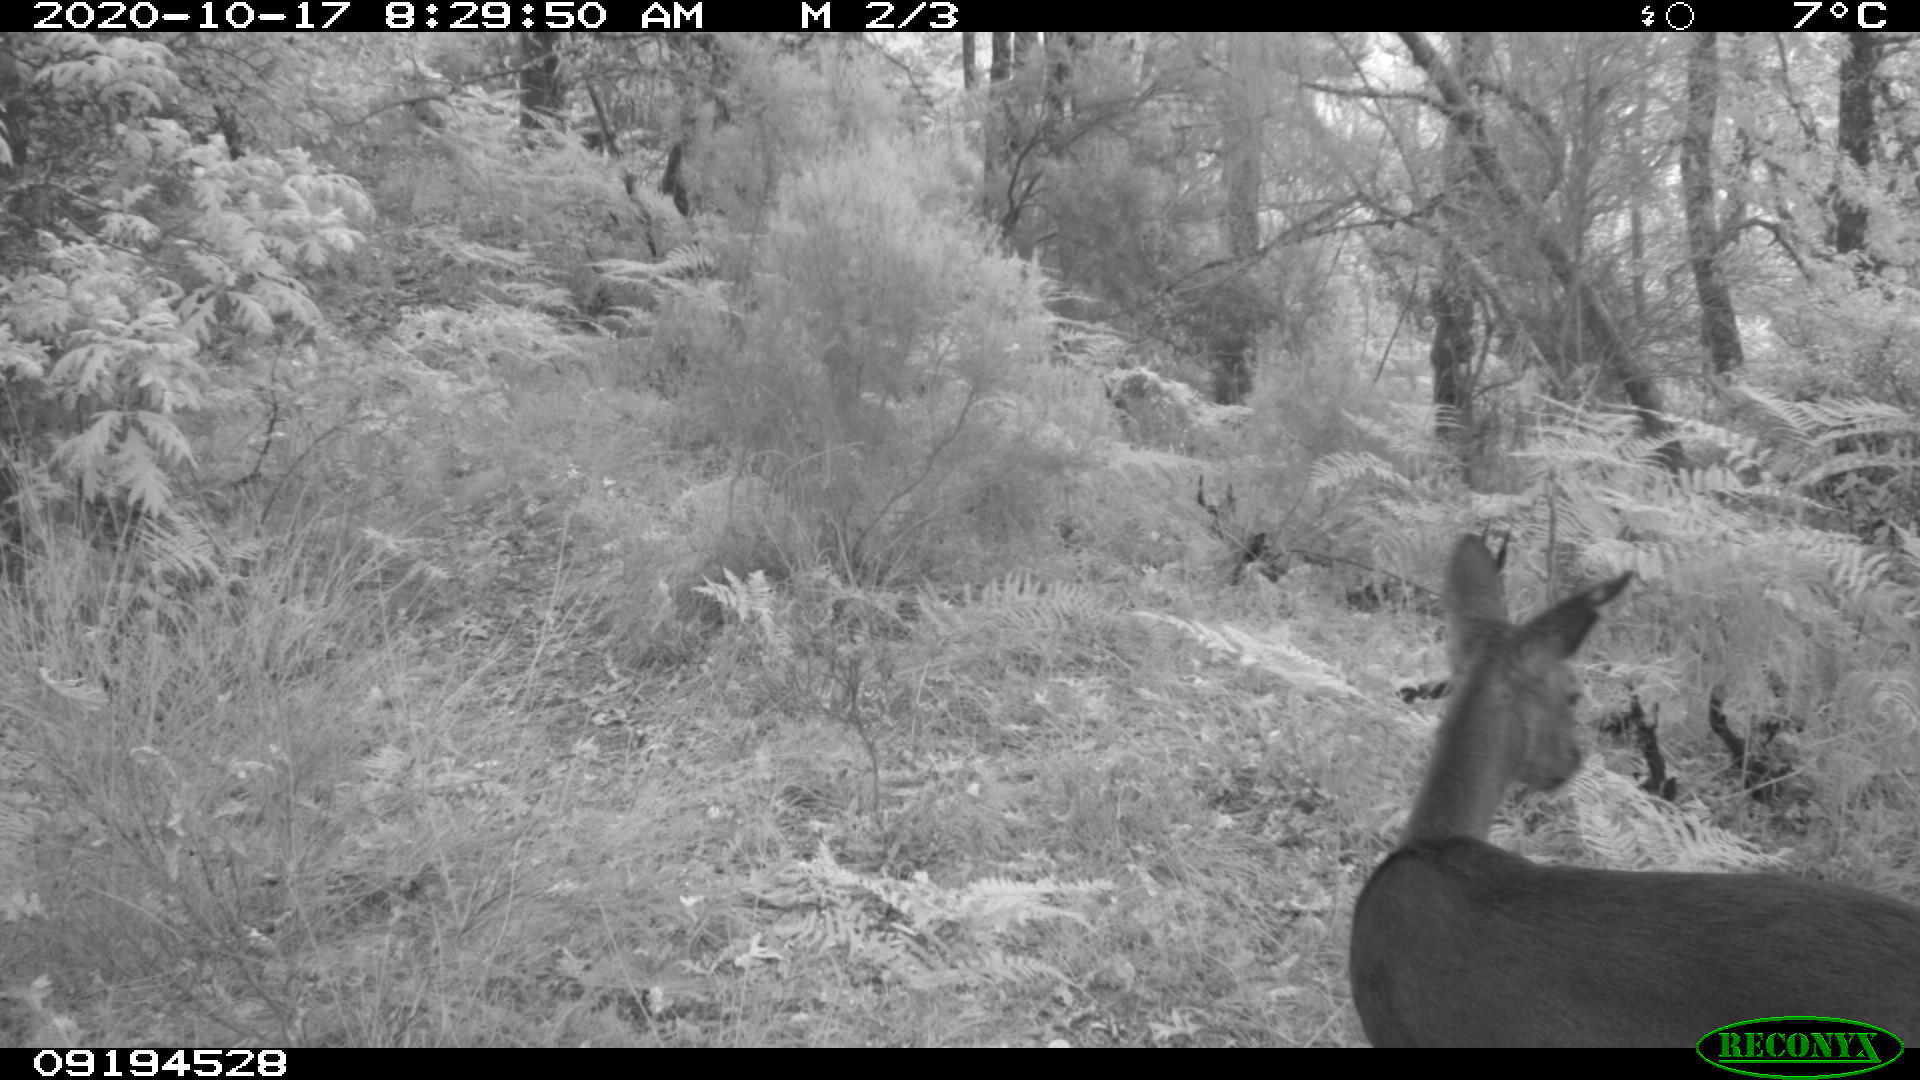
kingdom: Animalia
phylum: Chordata
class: Mammalia
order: Artiodactyla
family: Cervidae
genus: Capreolus
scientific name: Capreolus capreolus
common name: Western roe deer
